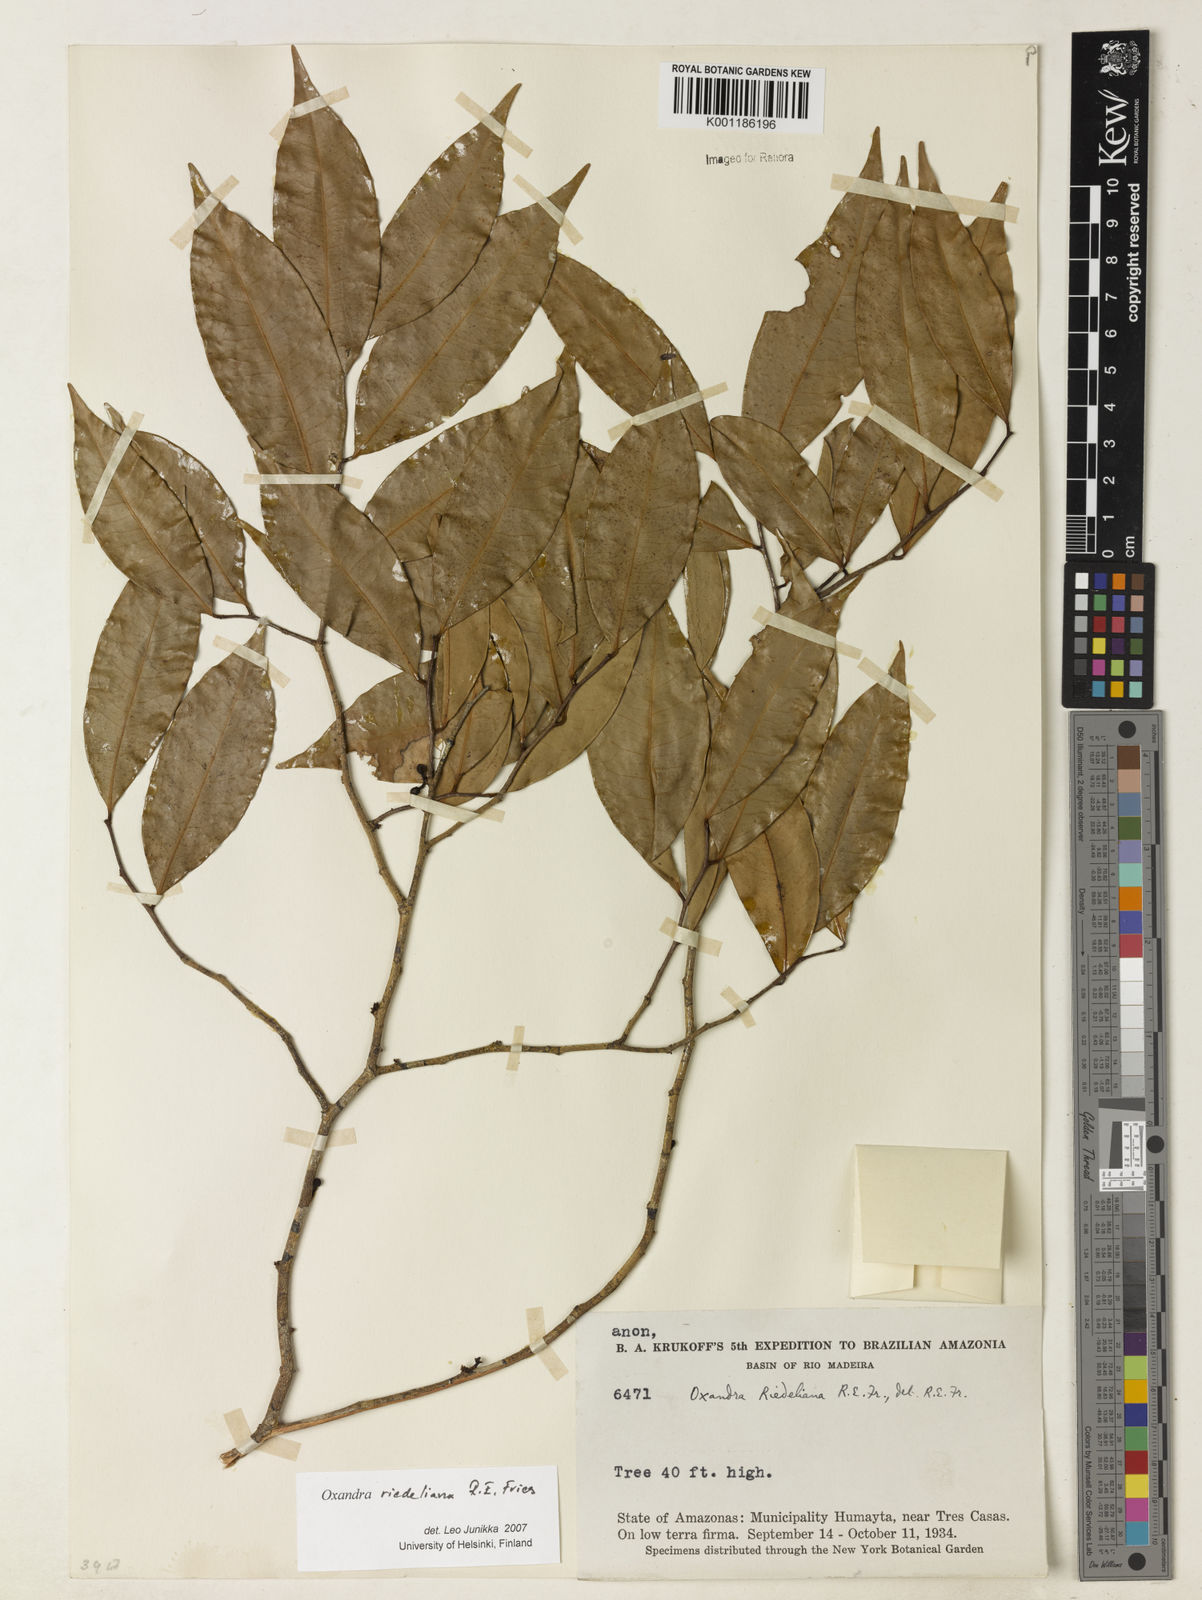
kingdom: Plantae
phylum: Tracheophyta
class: Magnoliopsida
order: Magnoliales
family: Annonaceae
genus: Oxandra
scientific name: Oxandra riedeliana
